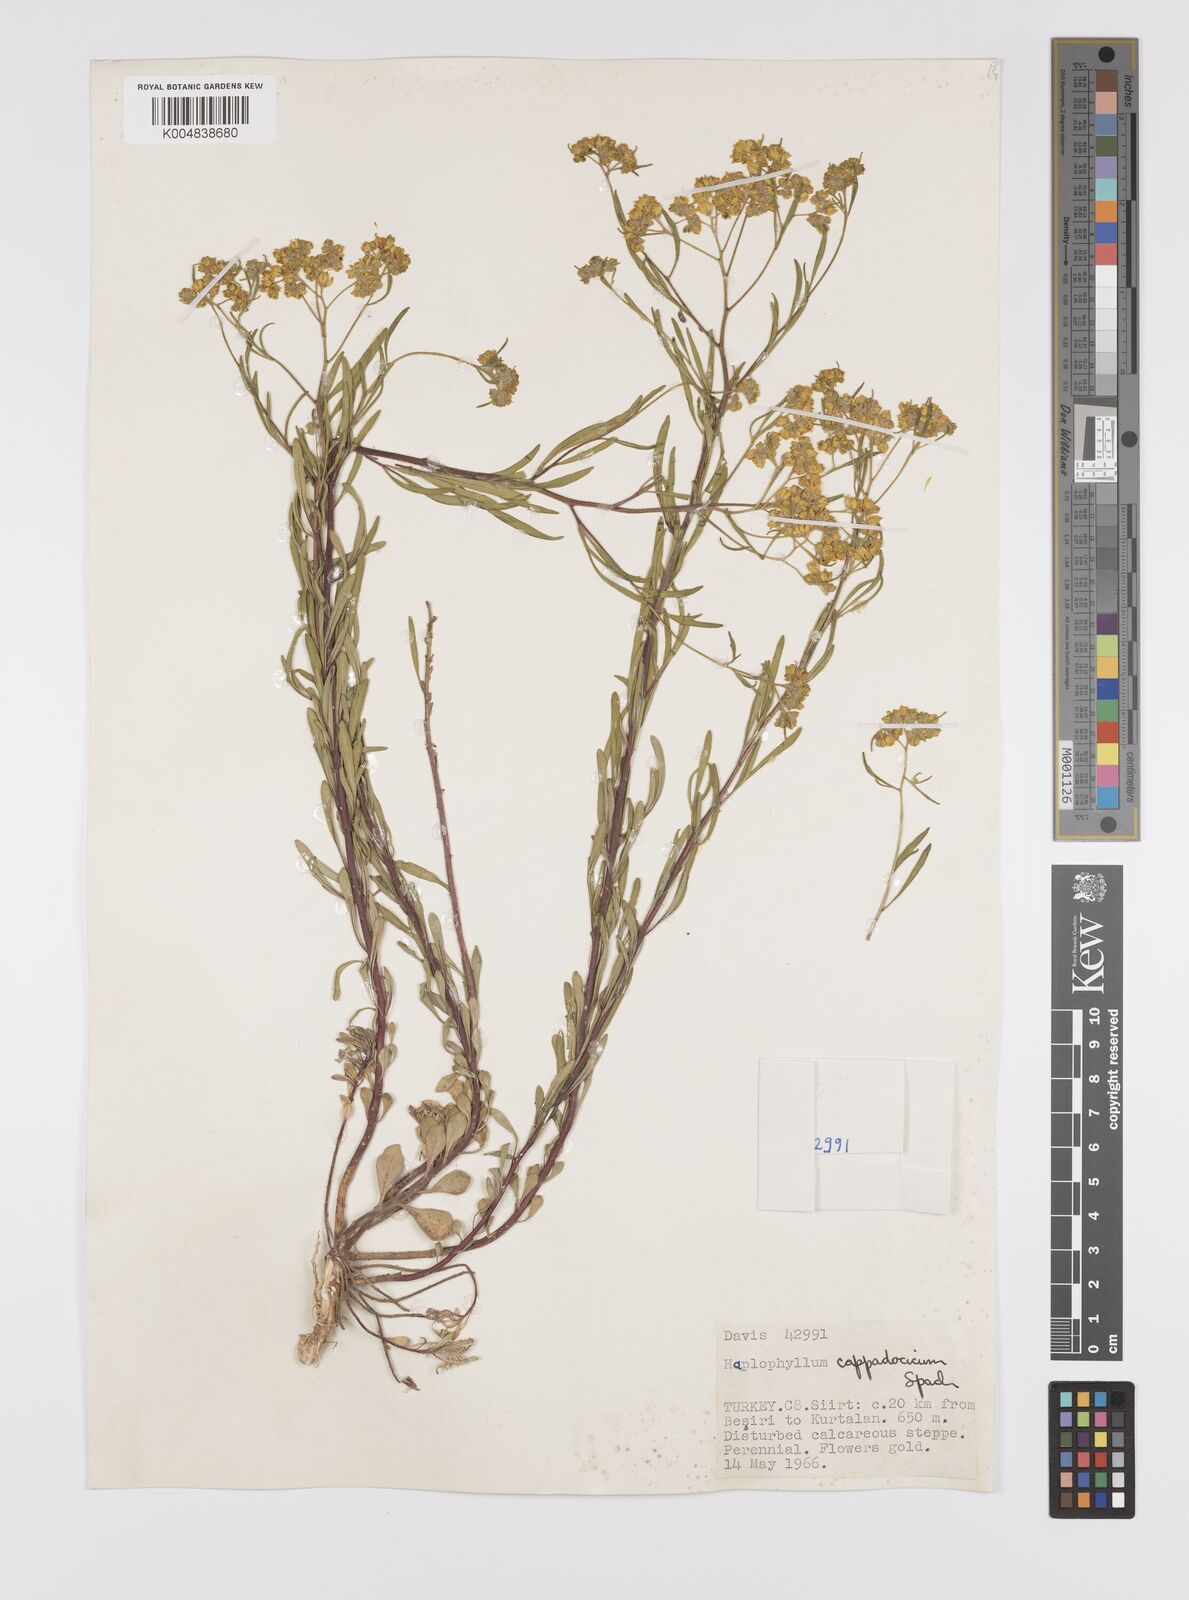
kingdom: Plantae
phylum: Tracheophyta
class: Magnoliopsida
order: Sapindales
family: Rutaceae
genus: Haplophyllum
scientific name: Haplophyllum cappadocicum
